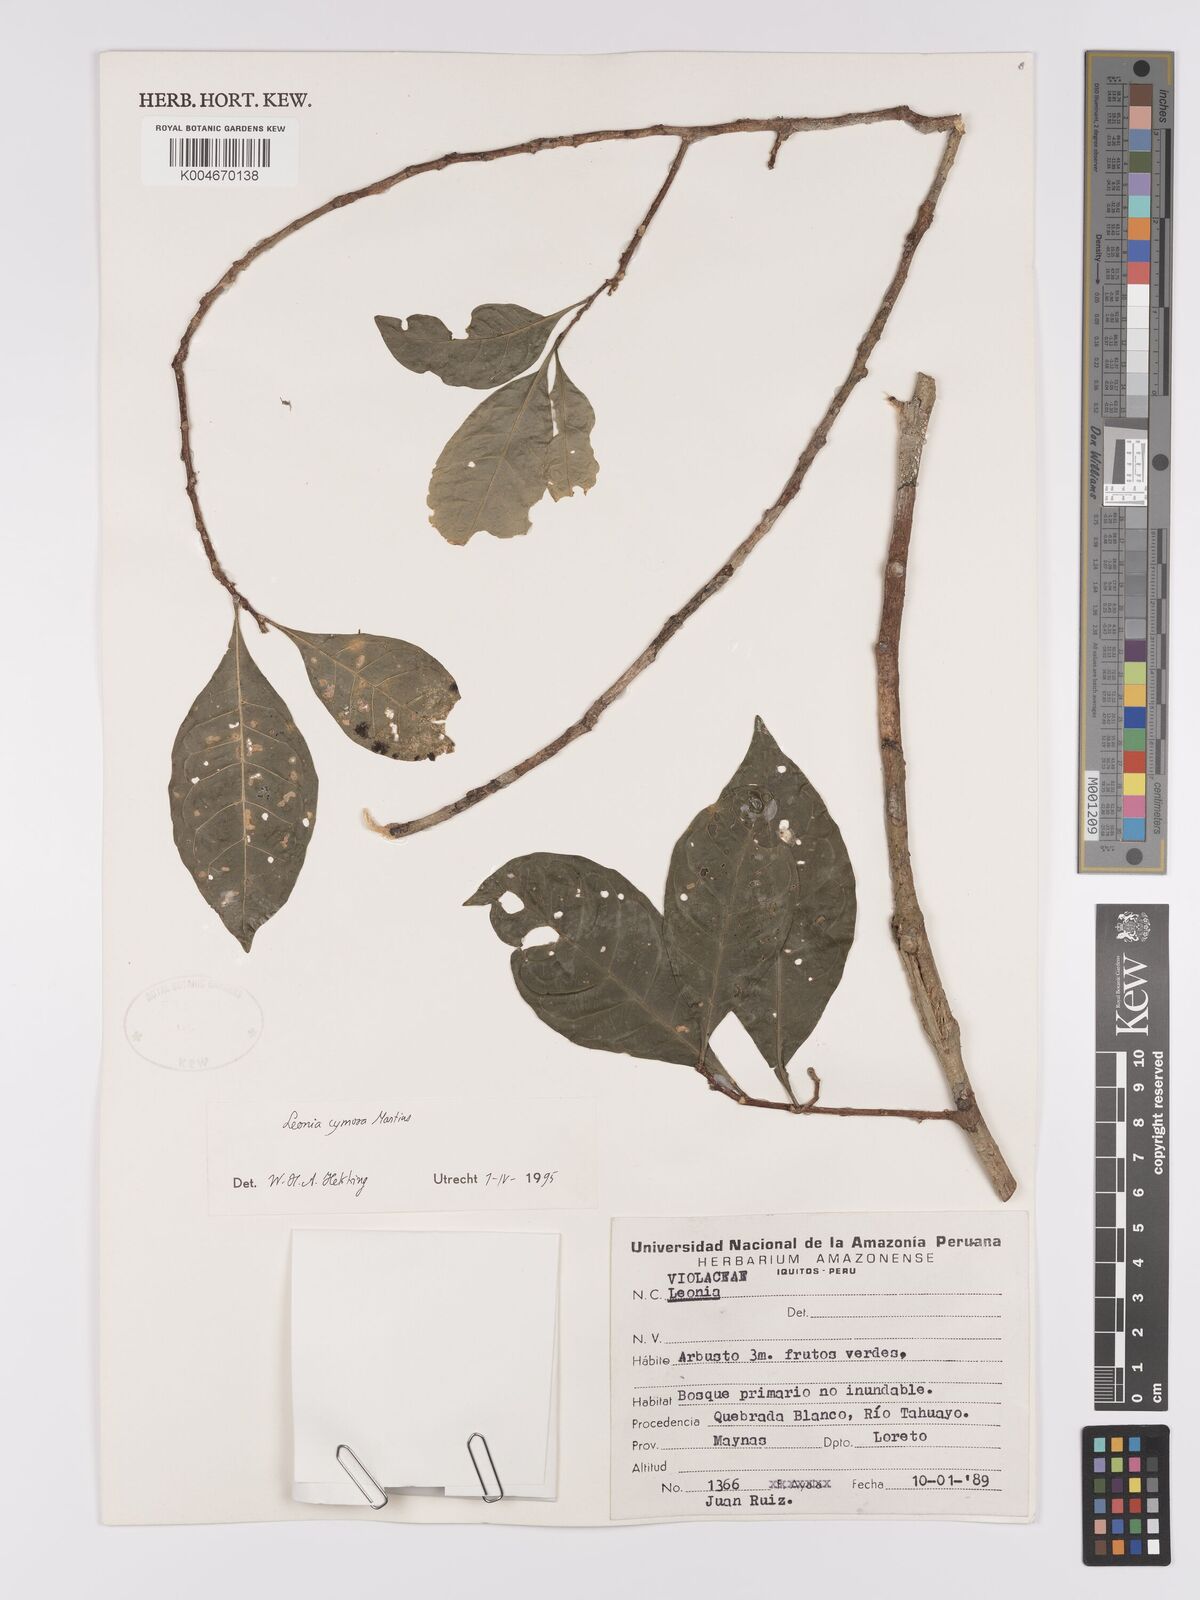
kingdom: Plantae
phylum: Tracheophyta
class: Magnoliopsida
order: Malpighiales
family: Violaceae
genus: Leonia
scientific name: Leonia cymosa
